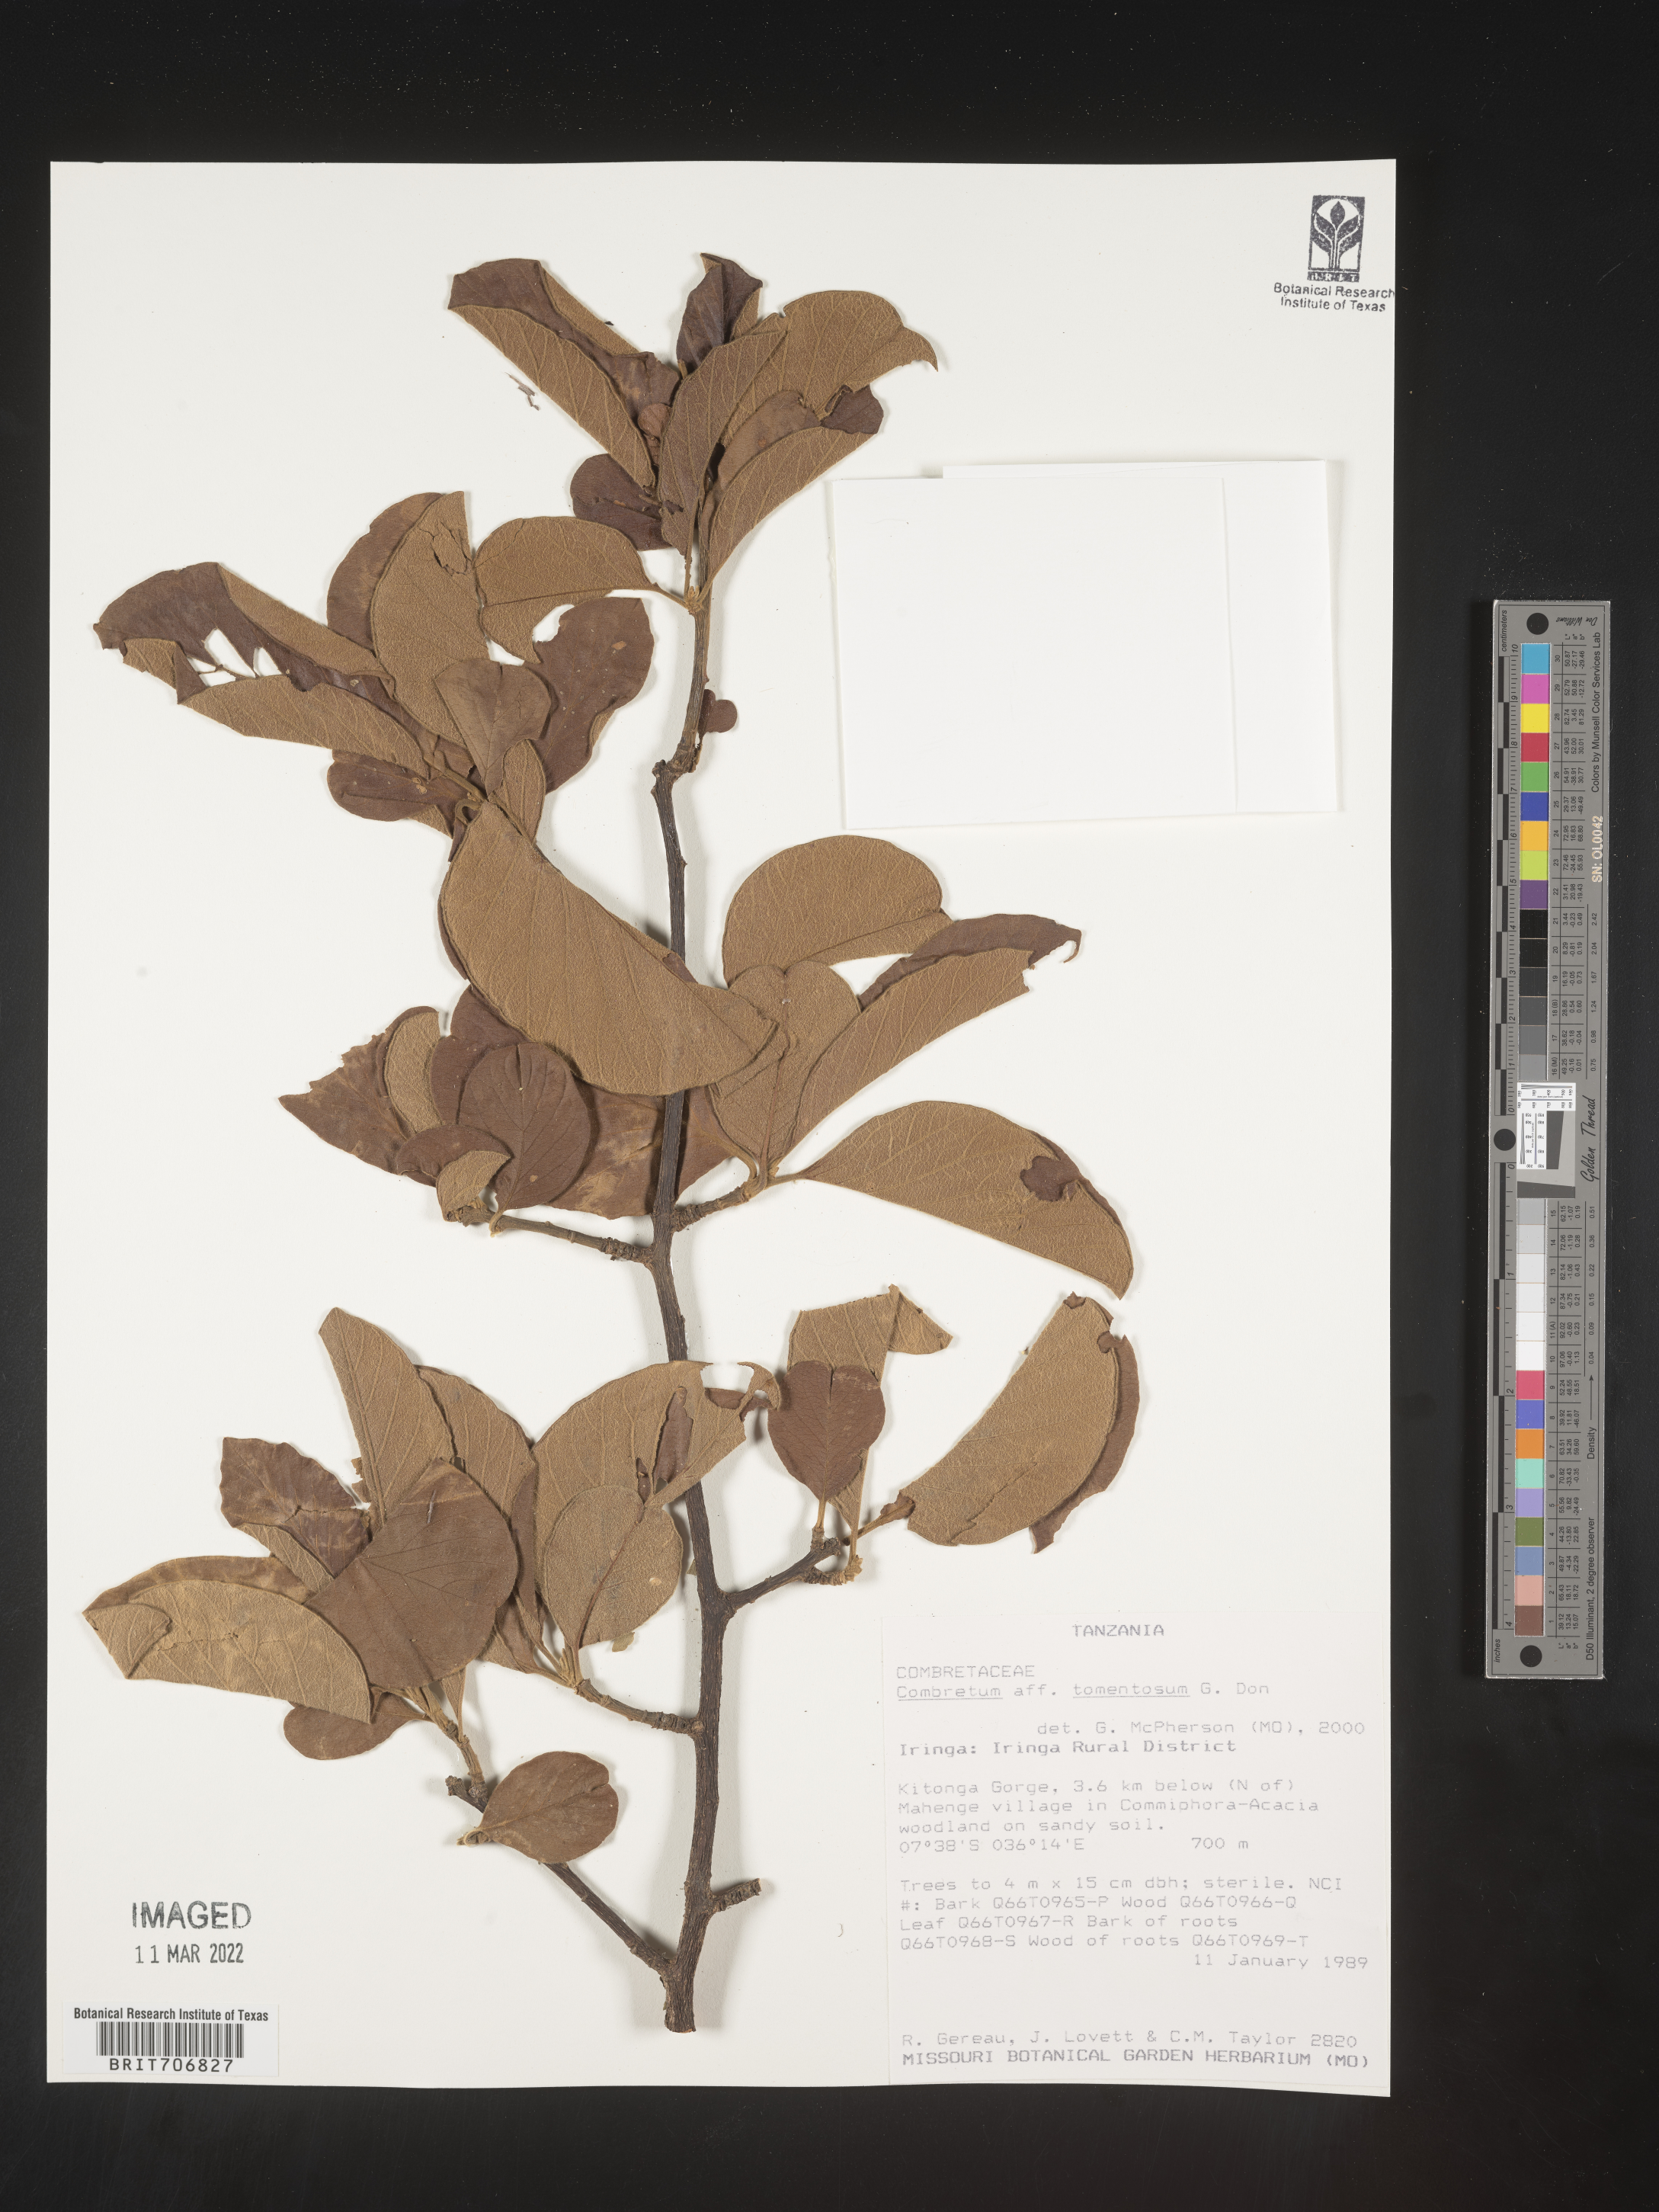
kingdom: Plantae
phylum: Tracheophyta
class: Magnoliopsida
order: Myrtales
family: Combretaceae
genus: Combretum
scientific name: Combretum
